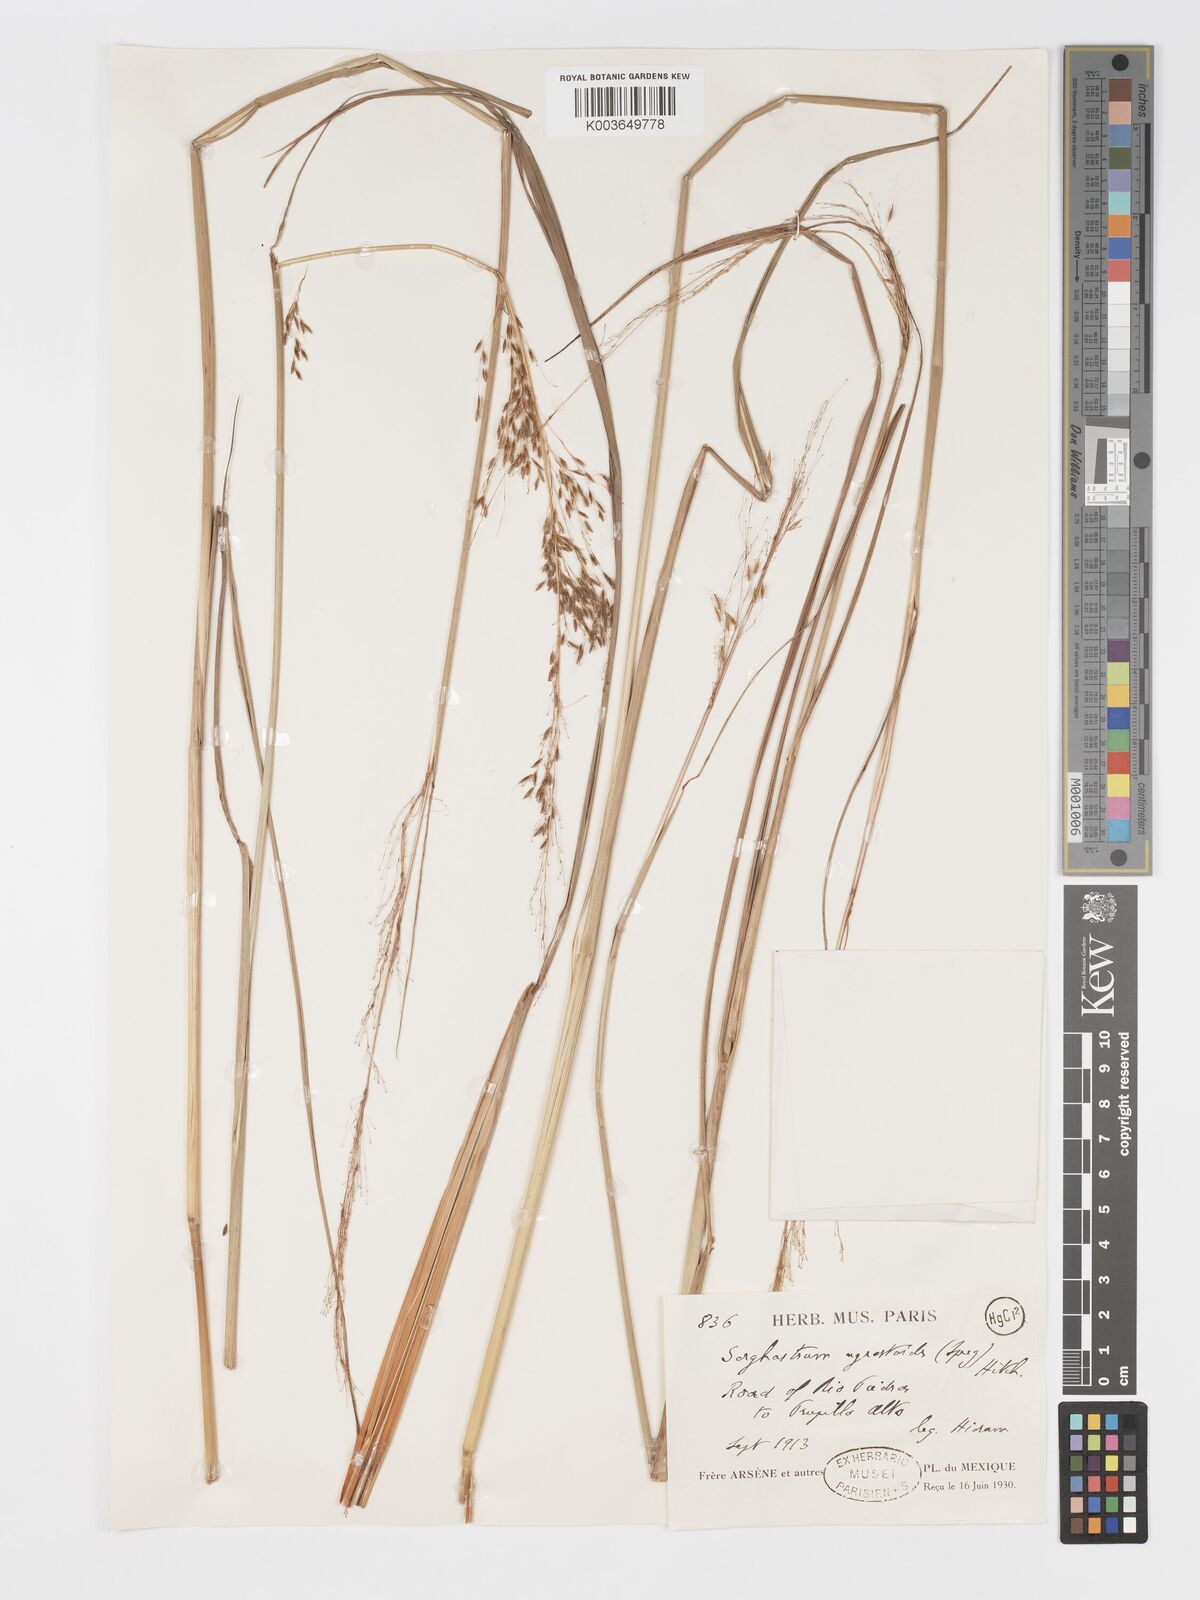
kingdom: Plantae
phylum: Tracheophyta
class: Liliopsida
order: Poales
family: Poaceae
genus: Sorghastrum
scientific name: Sorghastrum setosum
